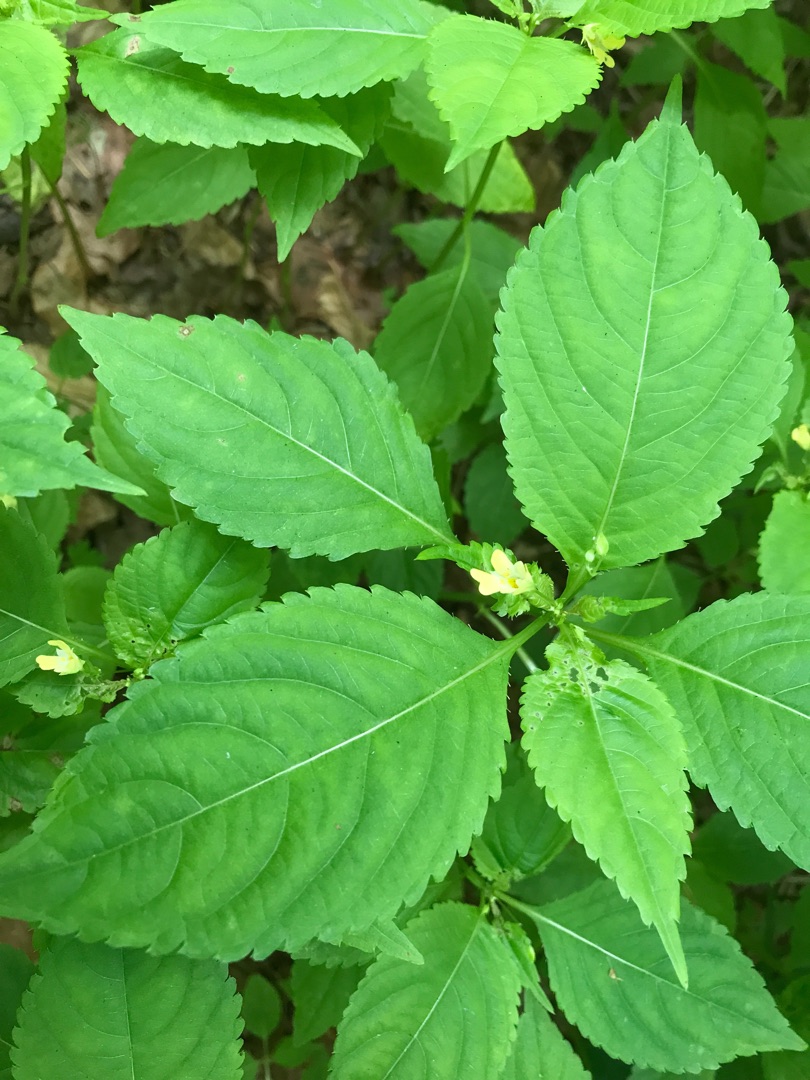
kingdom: Plantae
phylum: Tracheophyta
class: Magnoliopsida
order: Ericales
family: Balsaminaceae
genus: Impatiens
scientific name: Impatiens parviflora
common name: Småblomstret balsamin
